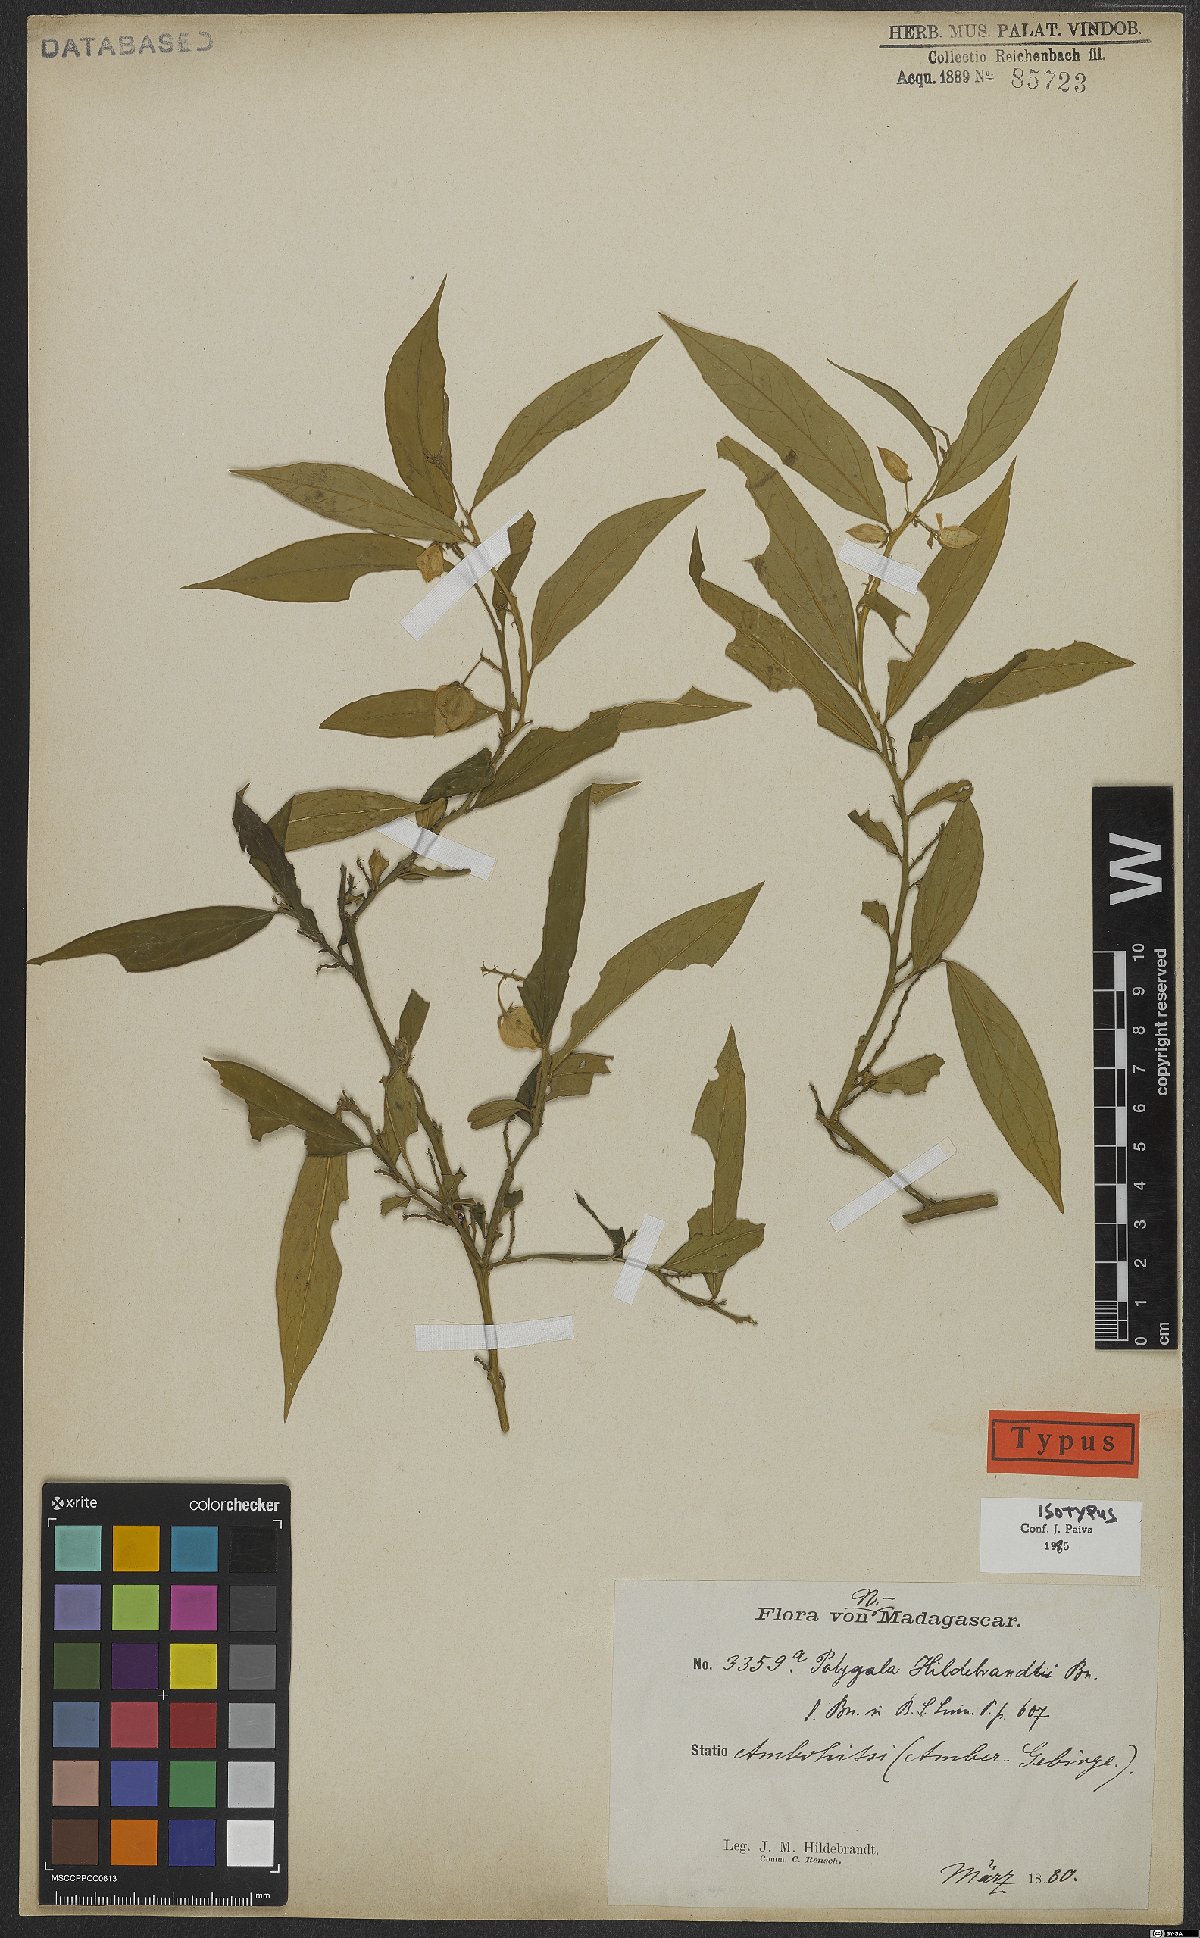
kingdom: Plantae
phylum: Tracheophyta
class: Magnoliopsida
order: Fabales
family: Polygalaceae
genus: Polygala
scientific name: Polygala hildebrandtii
